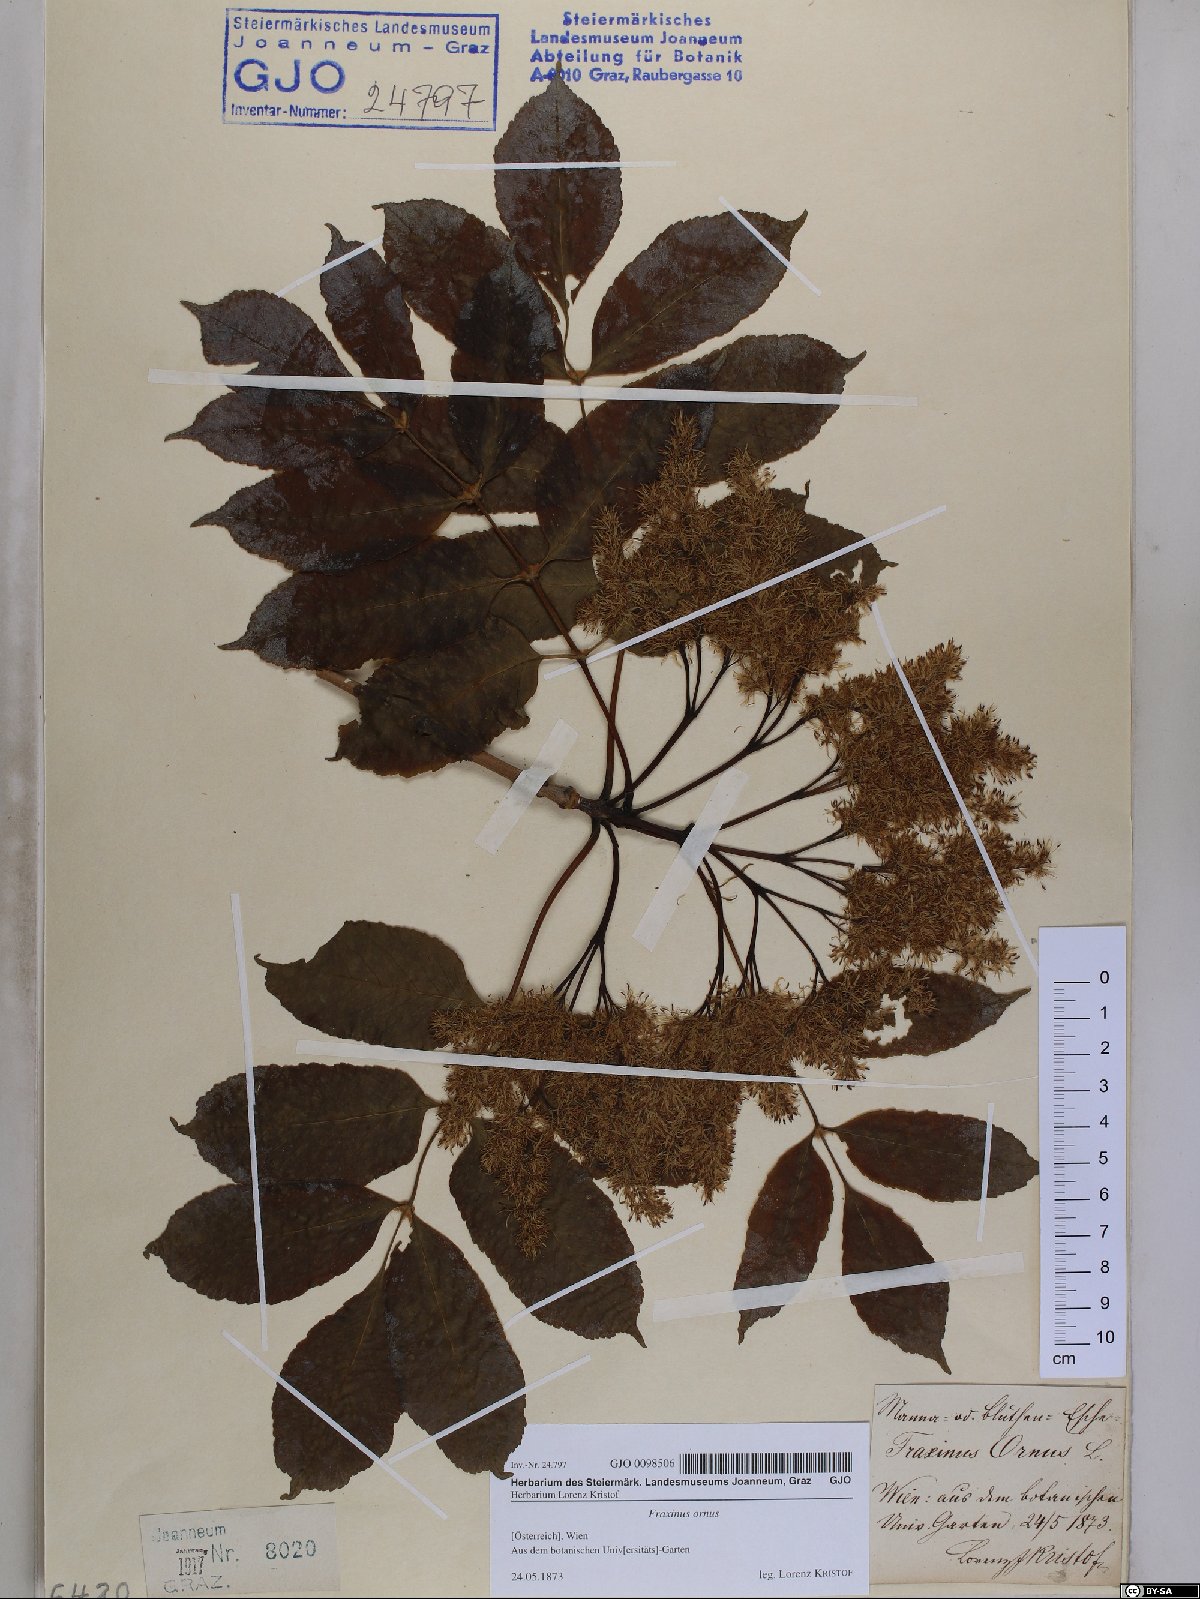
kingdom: Plantae
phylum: Tracheophyta
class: Magnoliopsida
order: Lamiales
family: Oleaceae
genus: Fraxinus
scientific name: Fraxinus ornus
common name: Manna ash
